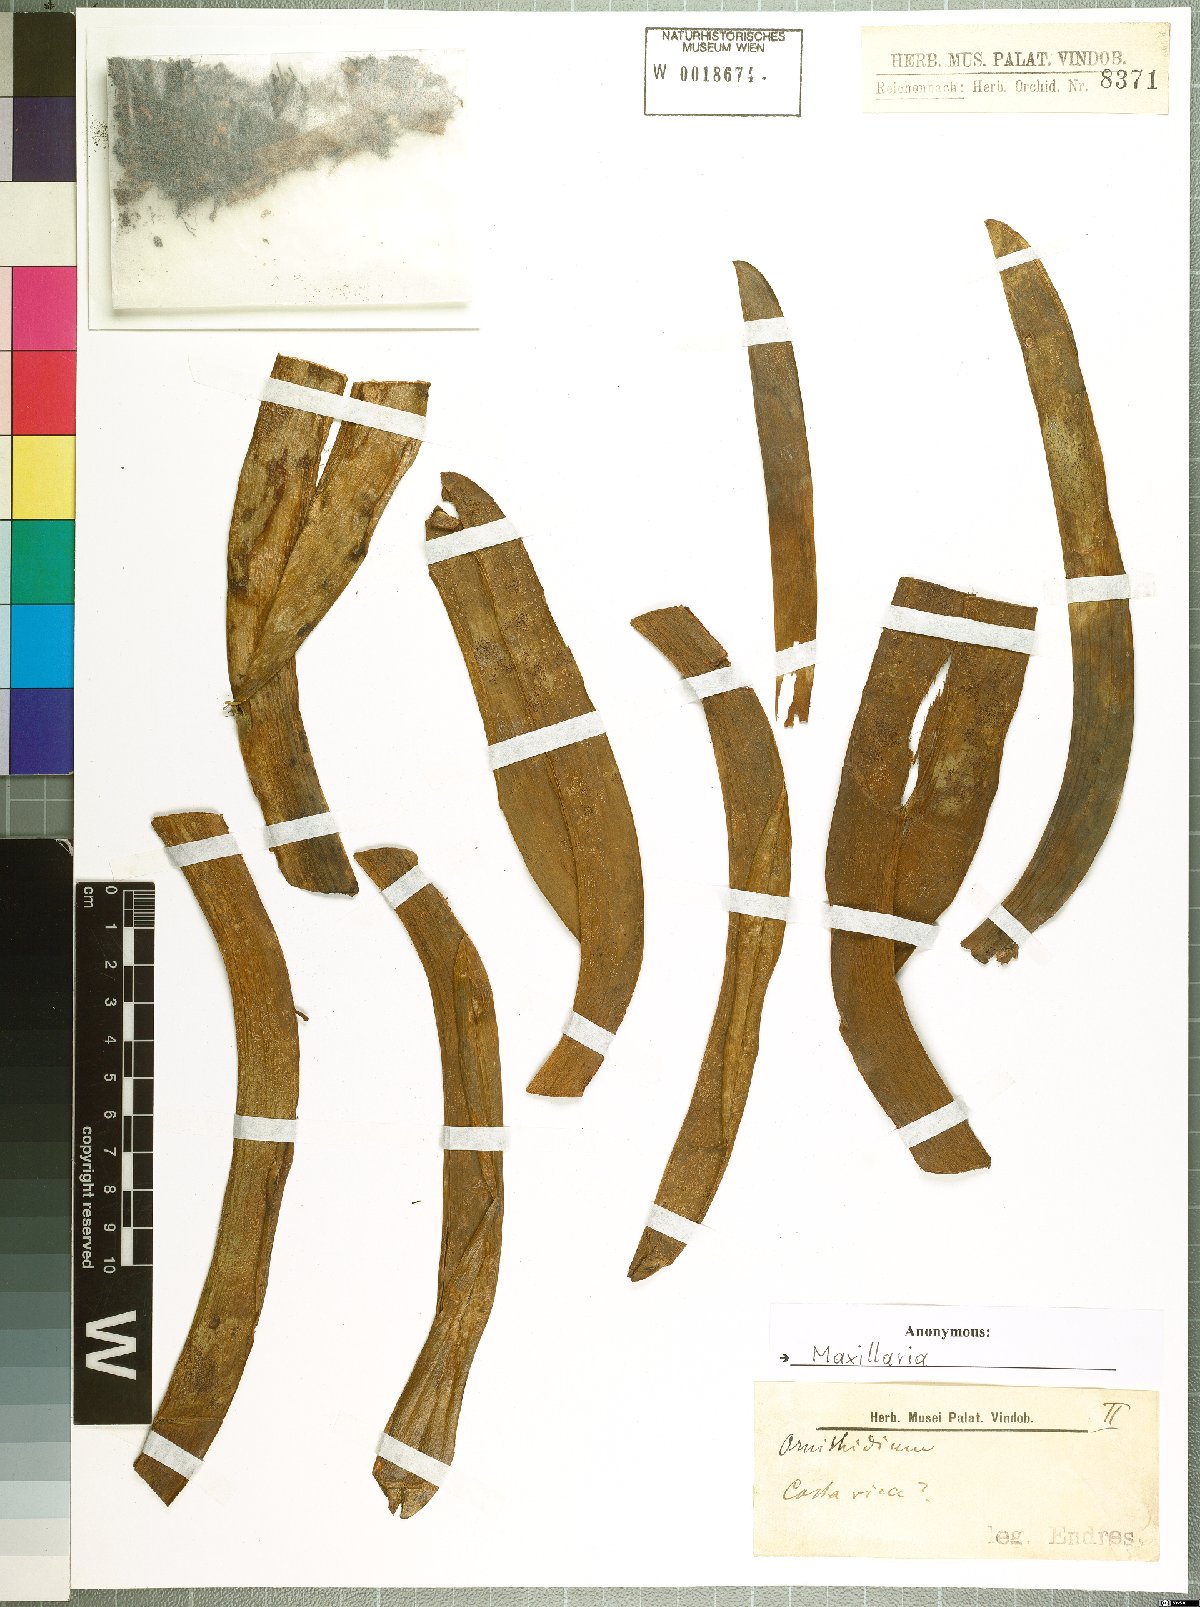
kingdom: Plantae
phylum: Tracheophyta
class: Liliopsida
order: Asparagales
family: Orchidaceae
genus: Maxillaria
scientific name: Maxillaria
